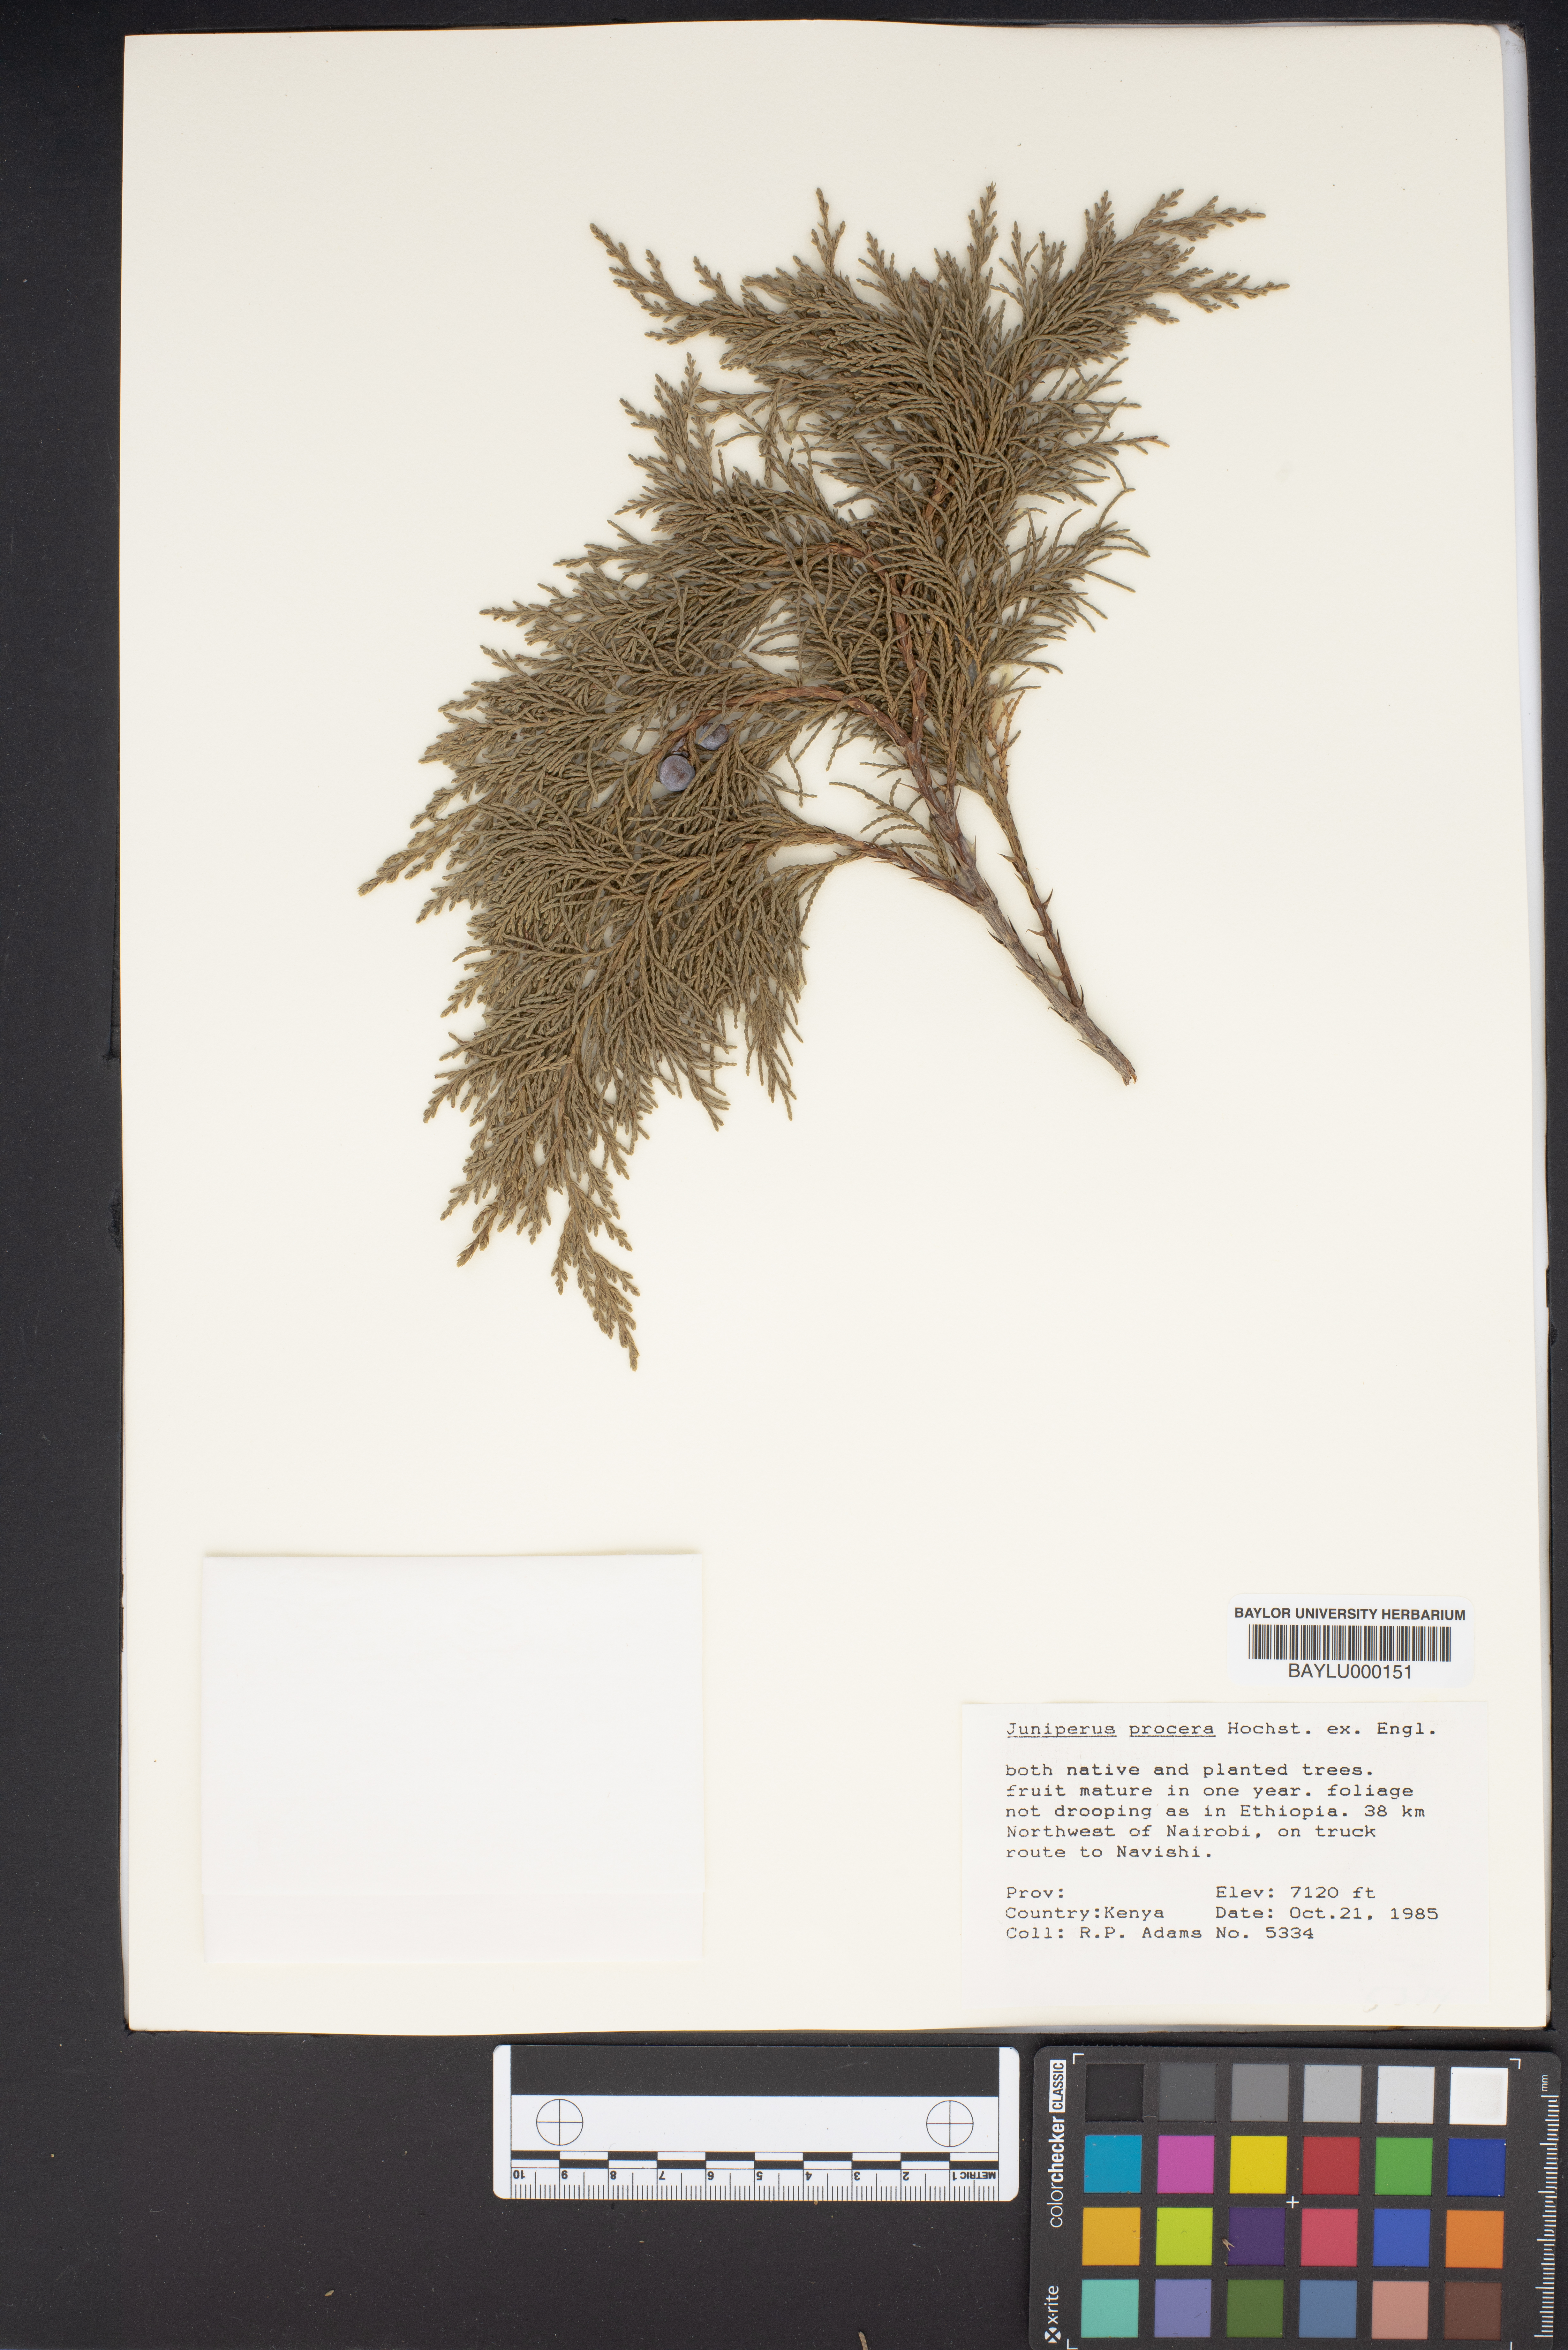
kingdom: Plantae
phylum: Tracheophyta
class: Pinopsida
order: Pinales
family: Cupressaceae
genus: Juniperus
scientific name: Juniperus procera
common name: African juniper
